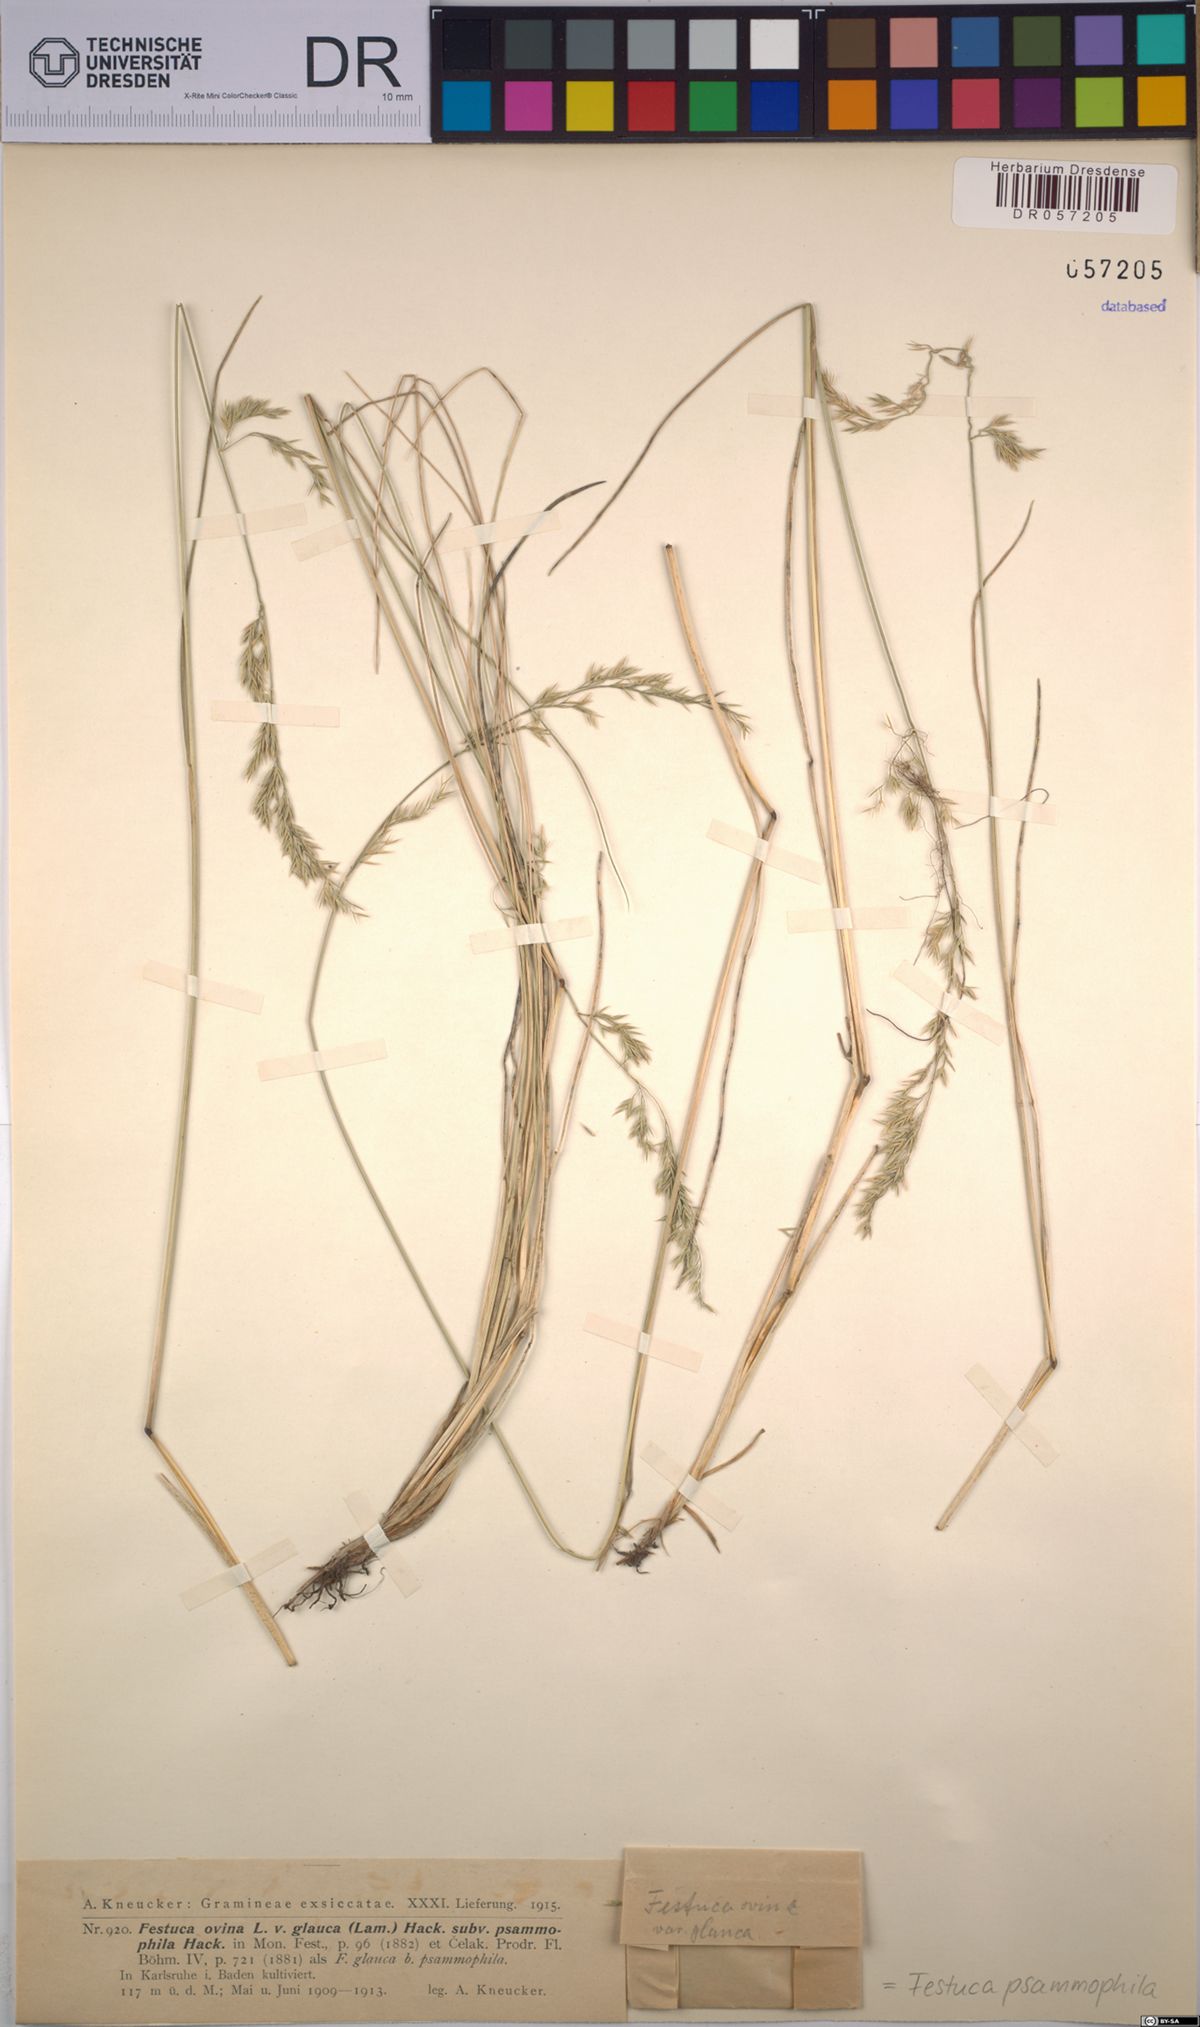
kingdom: Plantae
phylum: Tracheophyta
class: Liliopsida
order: Poales
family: Poaceae
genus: Festuca
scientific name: Festuca psammophila
